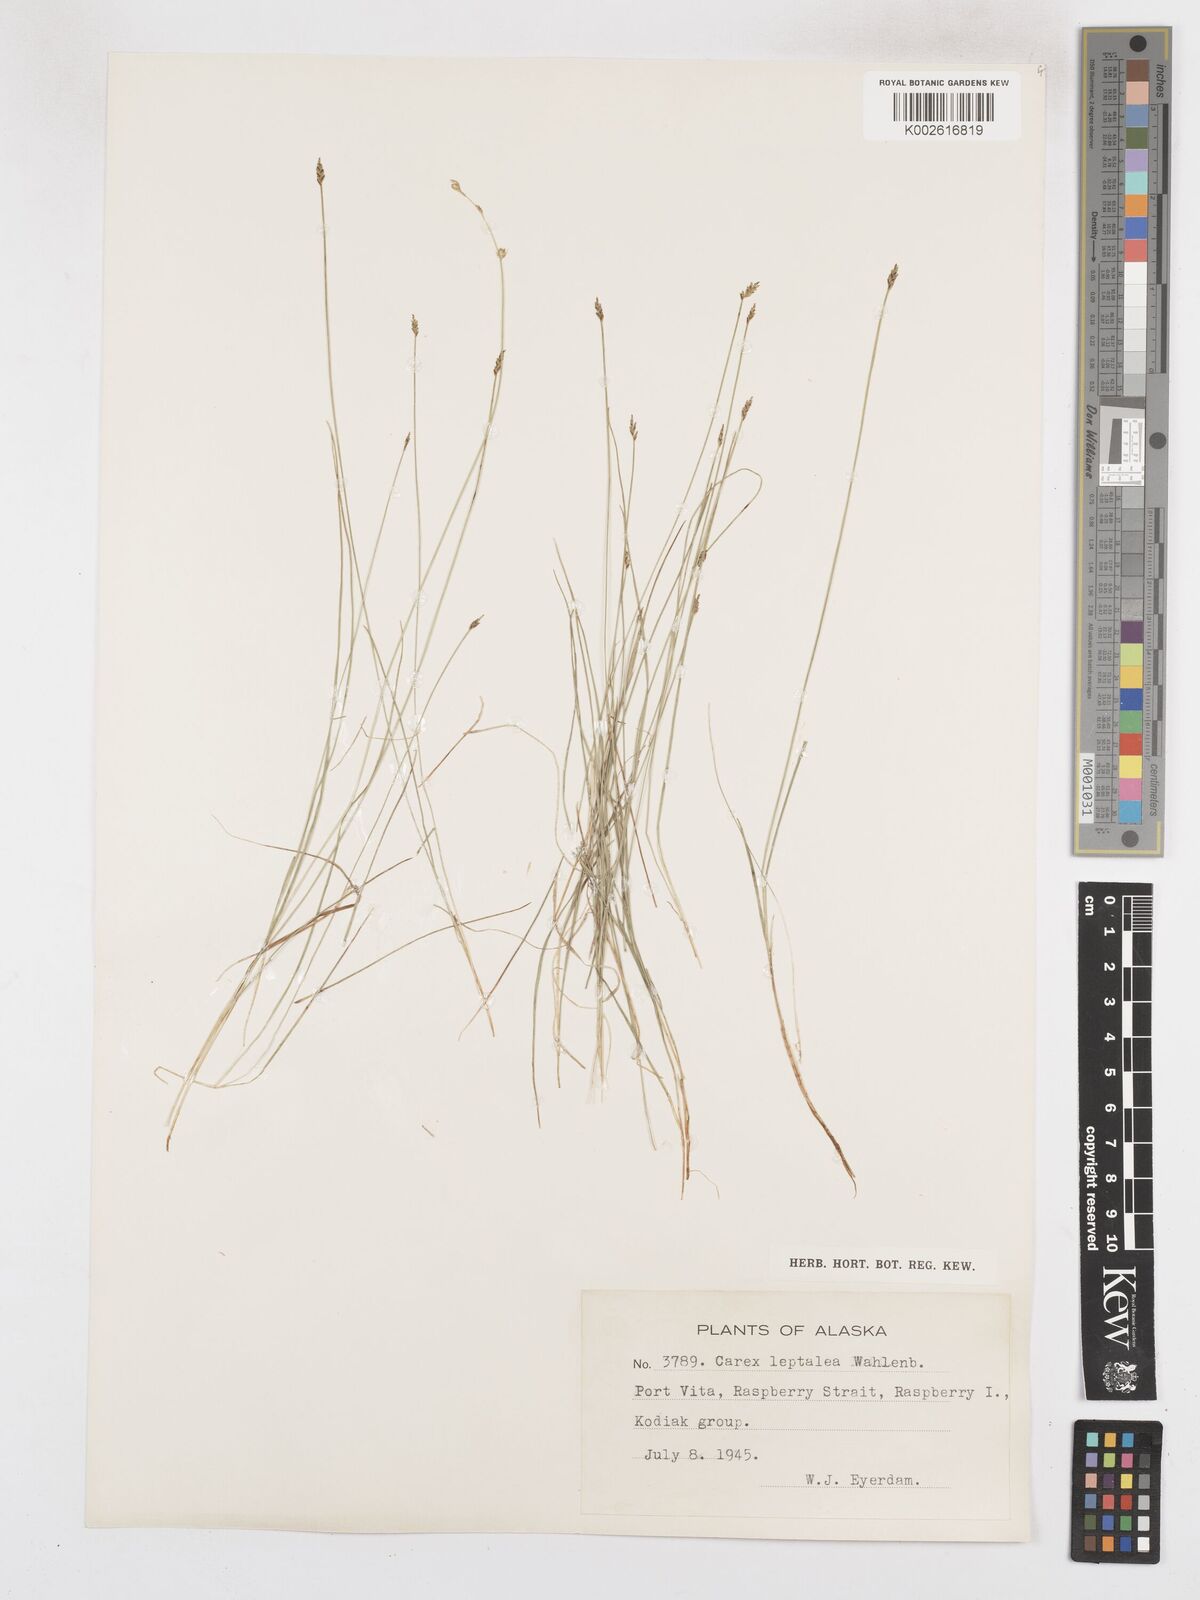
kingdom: Plantae
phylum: Tracheophyta
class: Liliopsida
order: Poales
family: Cyperaceae
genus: Carex
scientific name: Carex leptalea
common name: Bristly-stalked sedge
